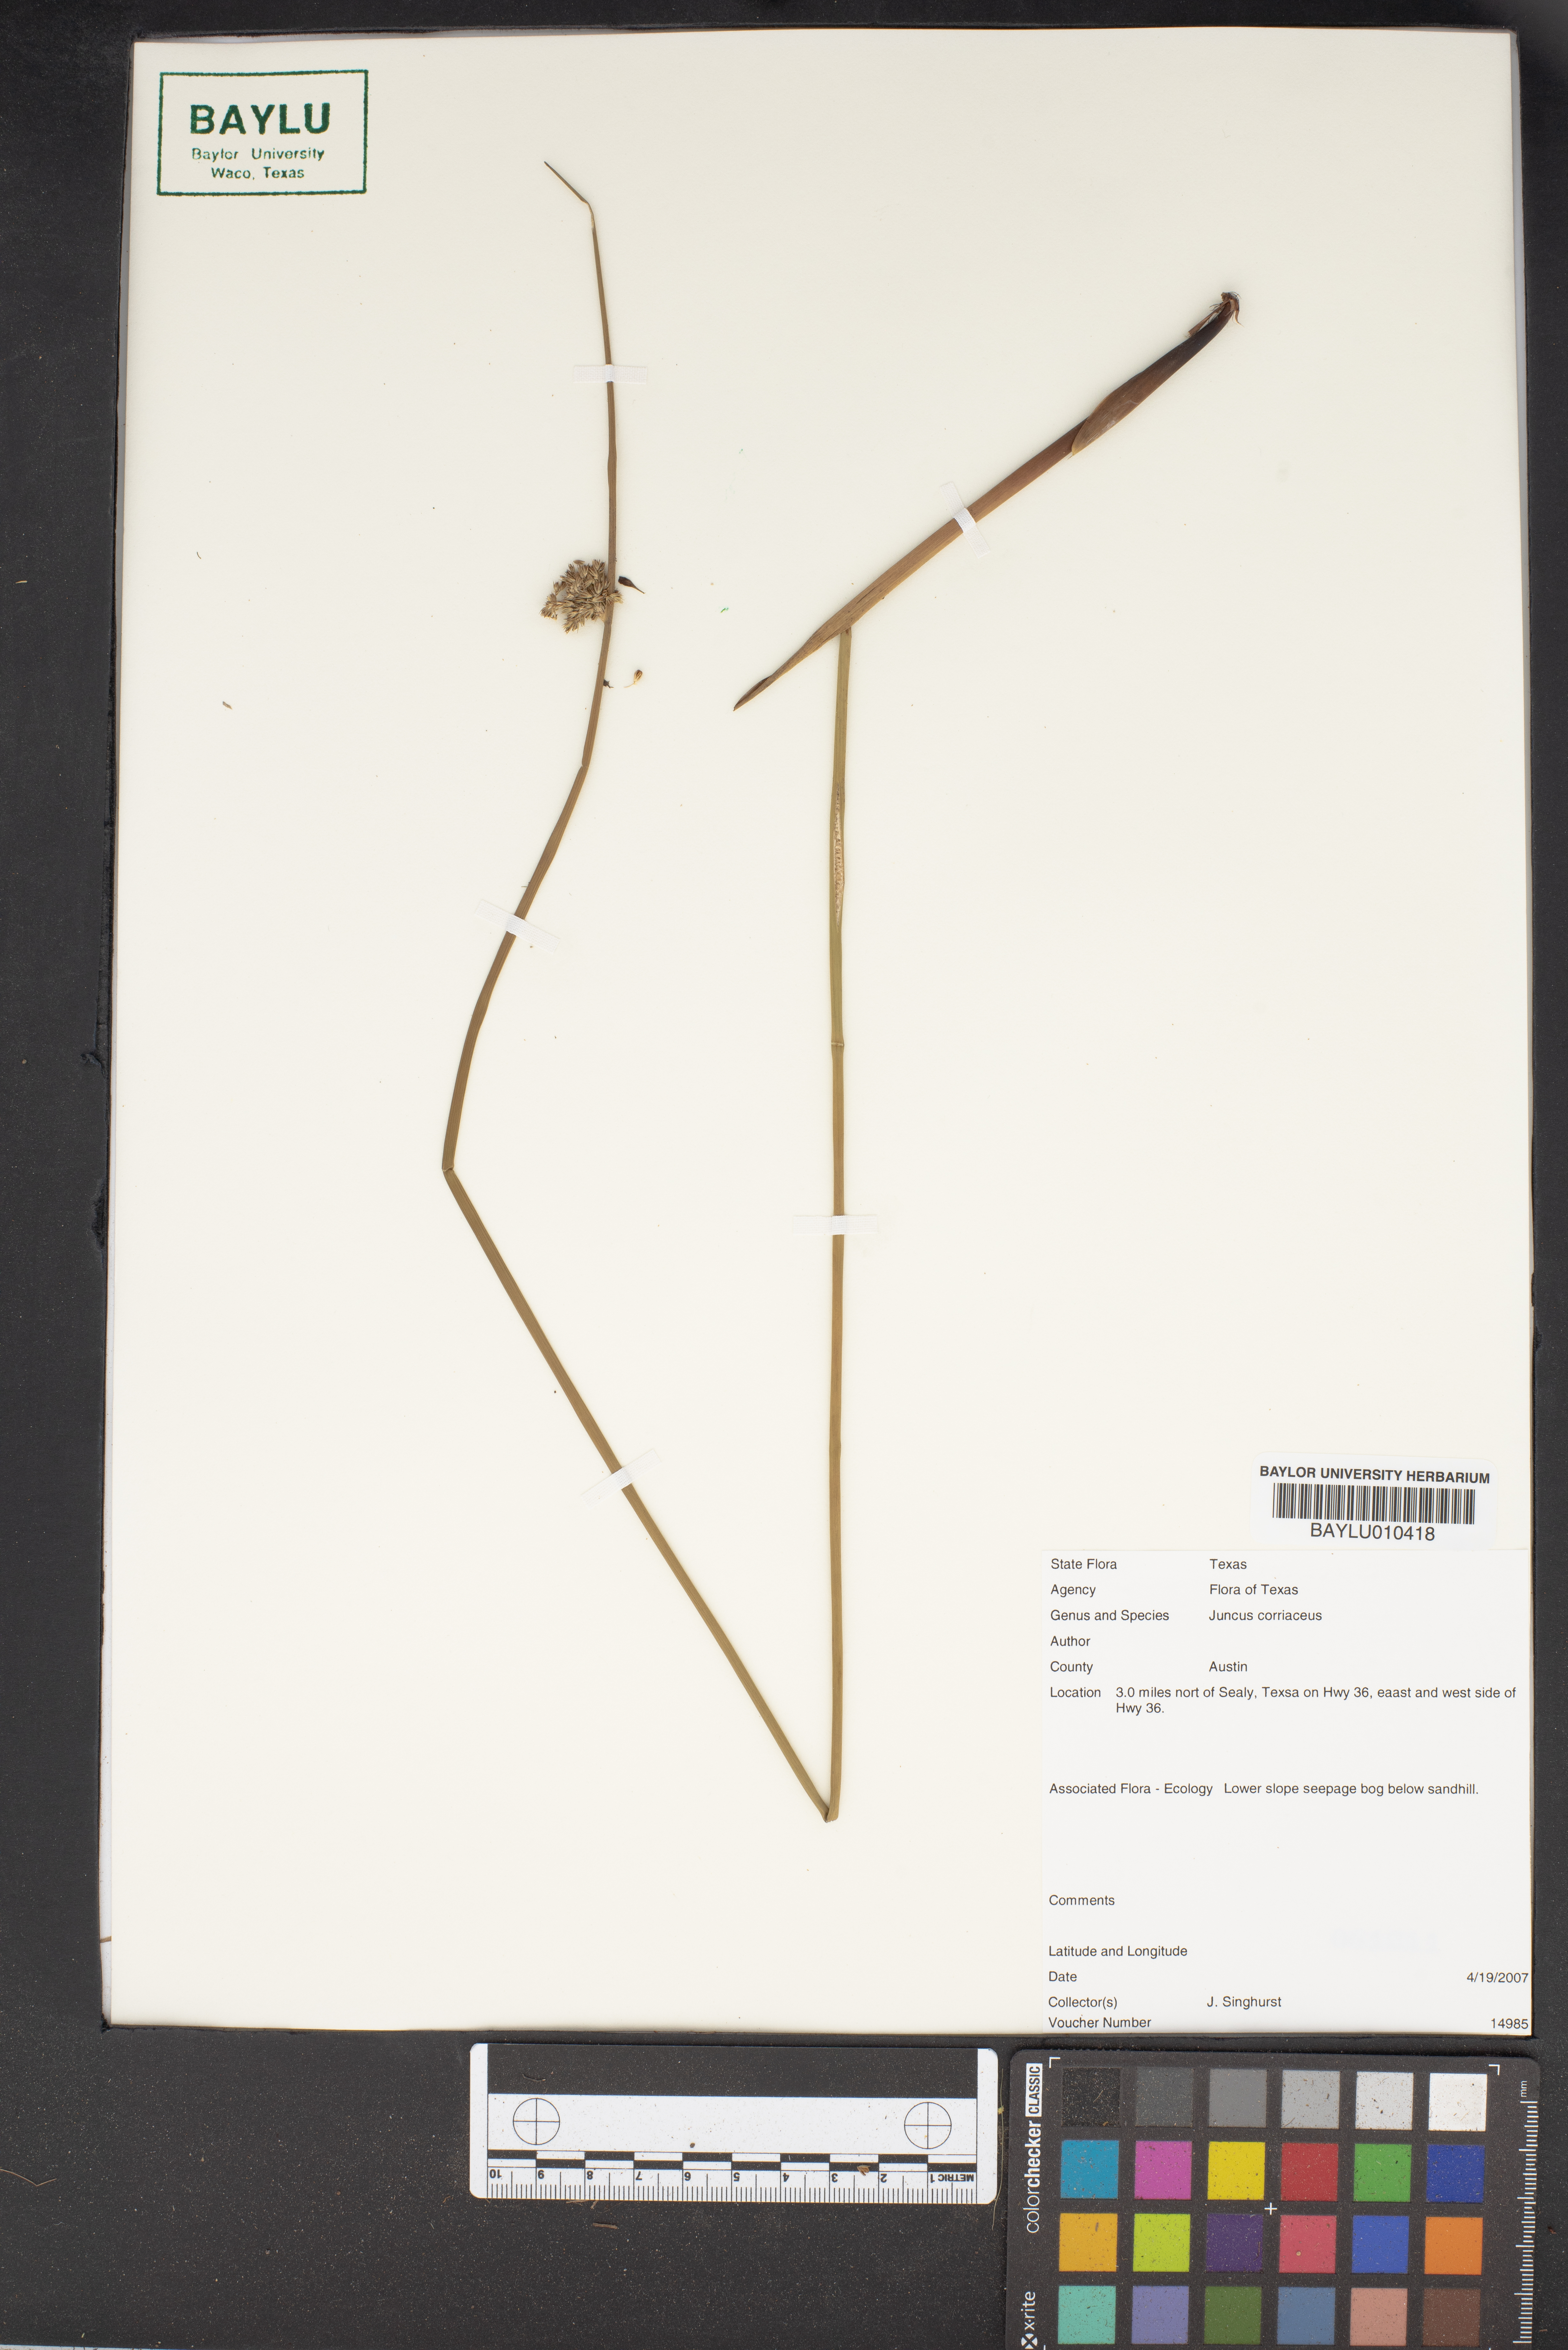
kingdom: Plantae
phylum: Tracheophyta
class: Liliopsida
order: Poales
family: Juncaceae
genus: Juncus
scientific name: Juncus coriaceus
